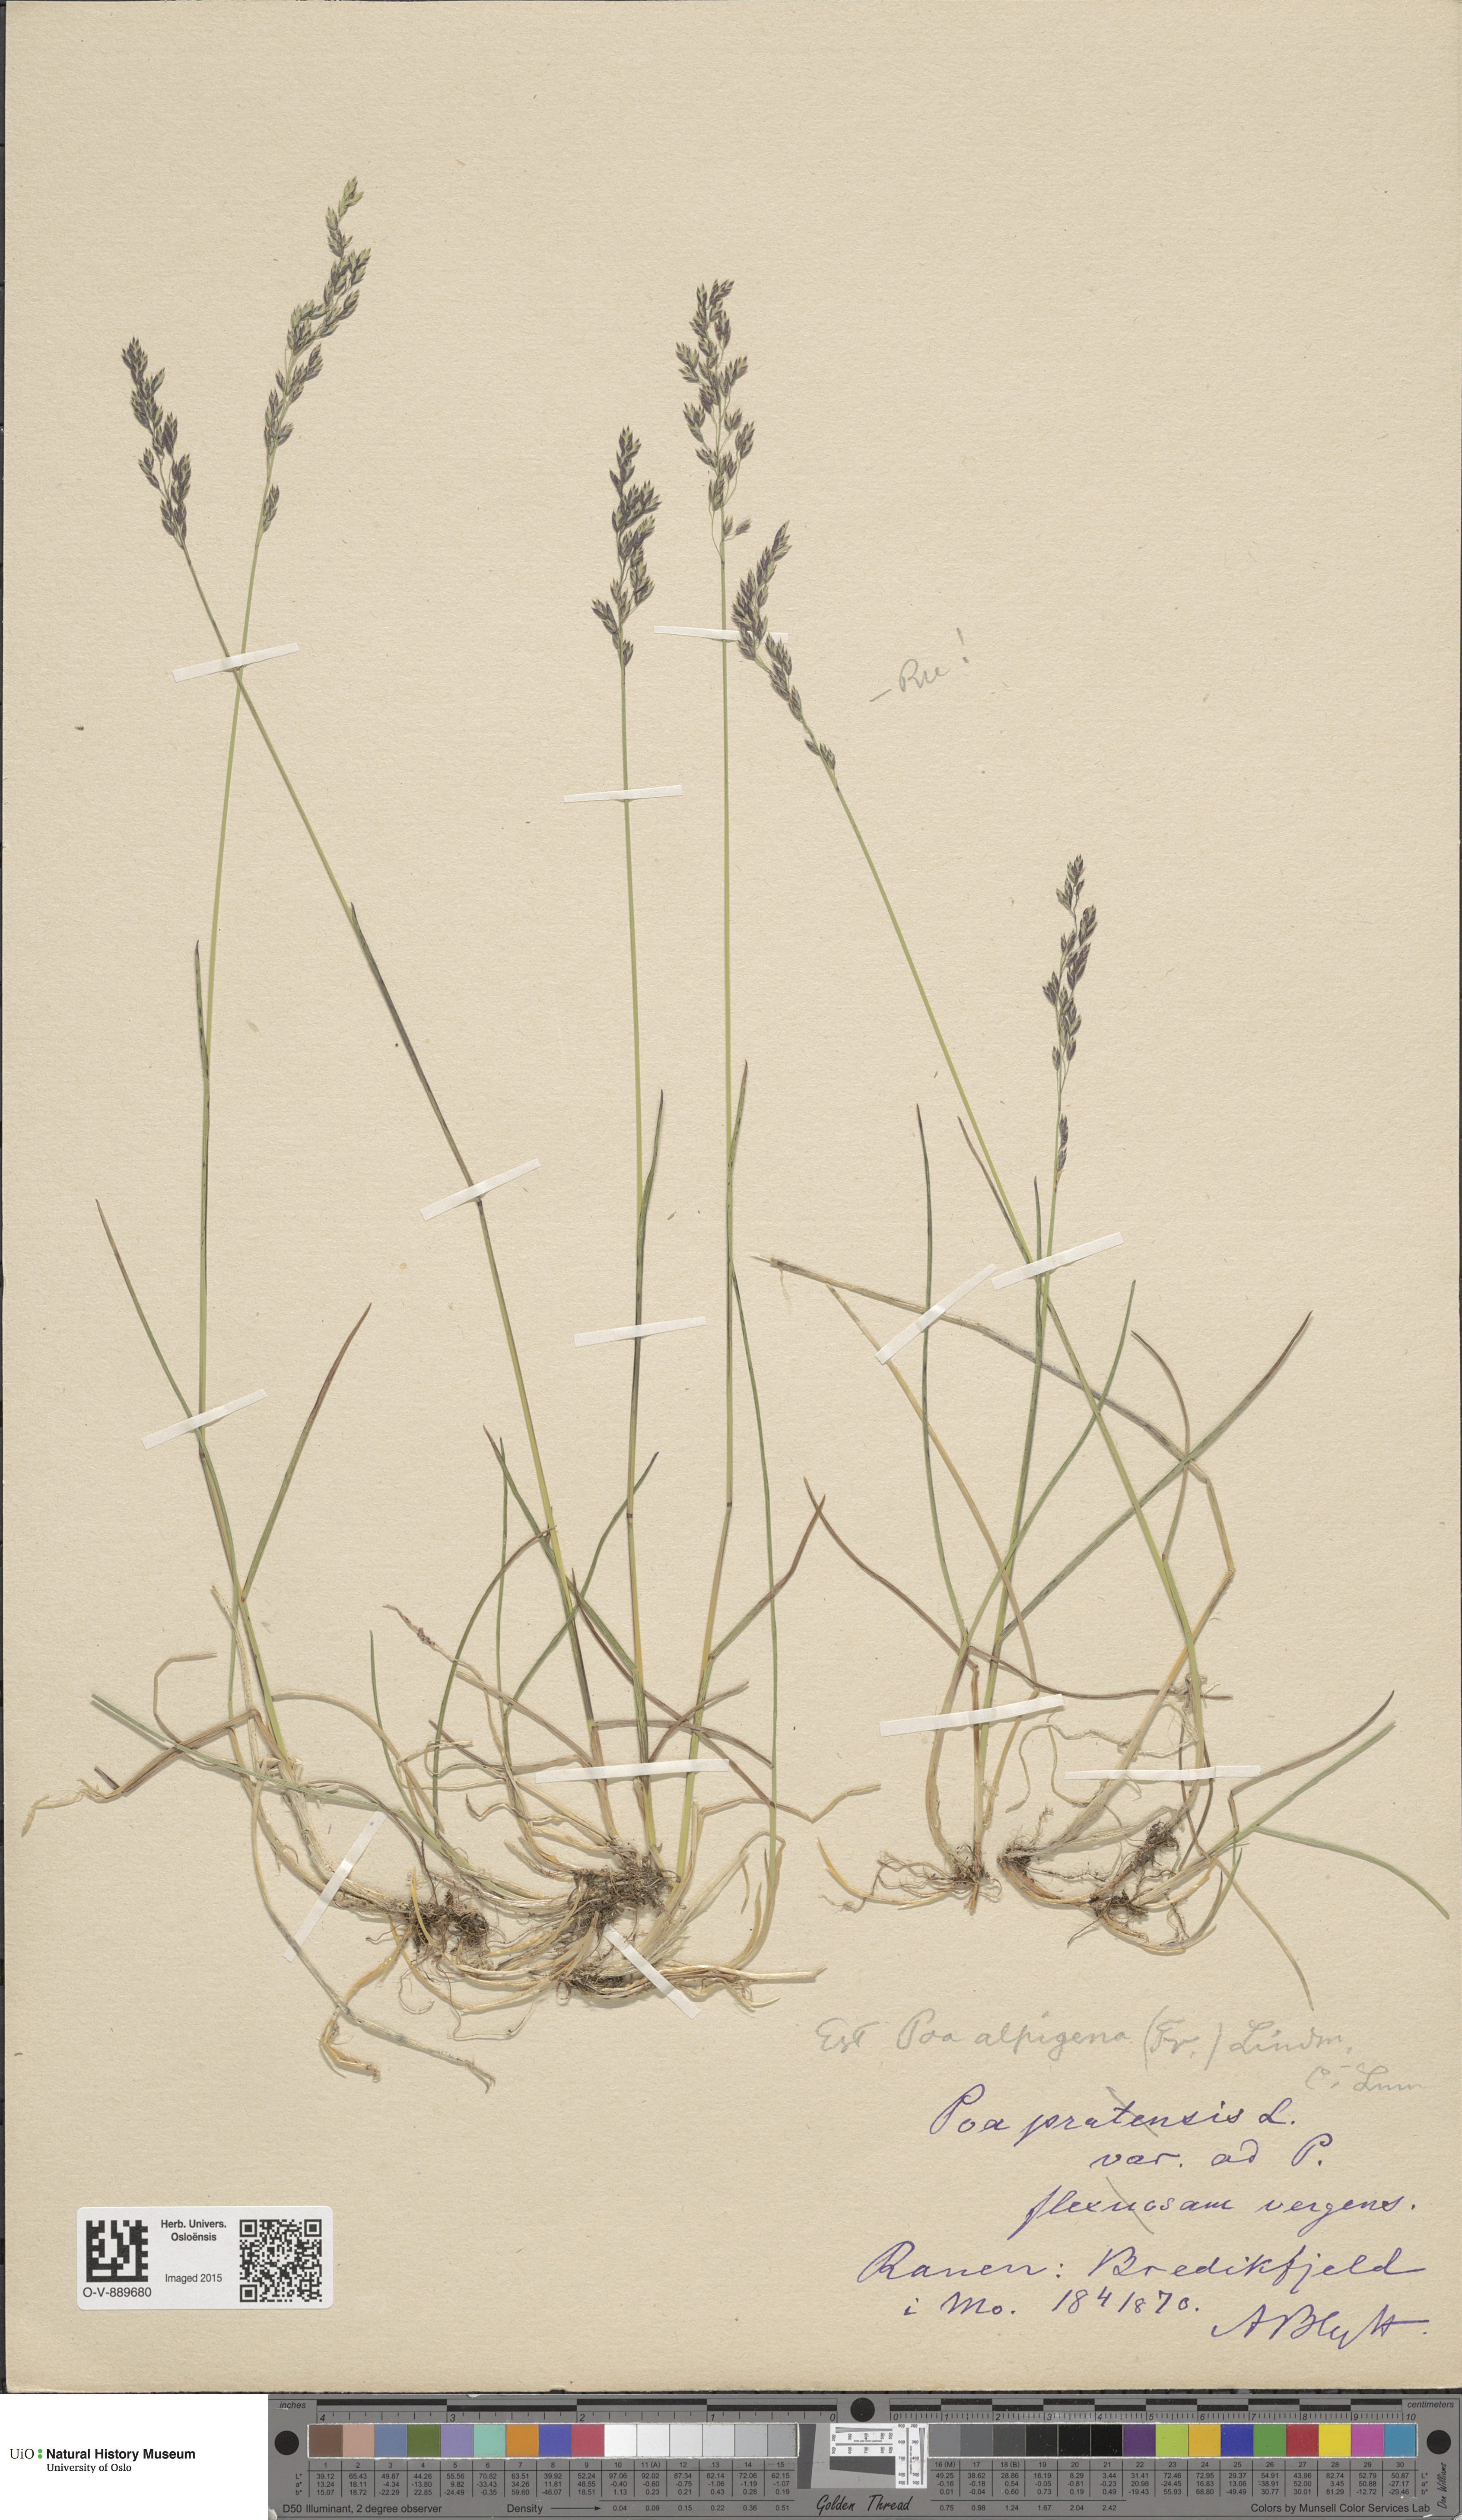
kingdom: Plantae
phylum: Tracheophyta
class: Liliopsida
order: Poales
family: Poaceae
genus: Poa
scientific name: Poa alpigena
